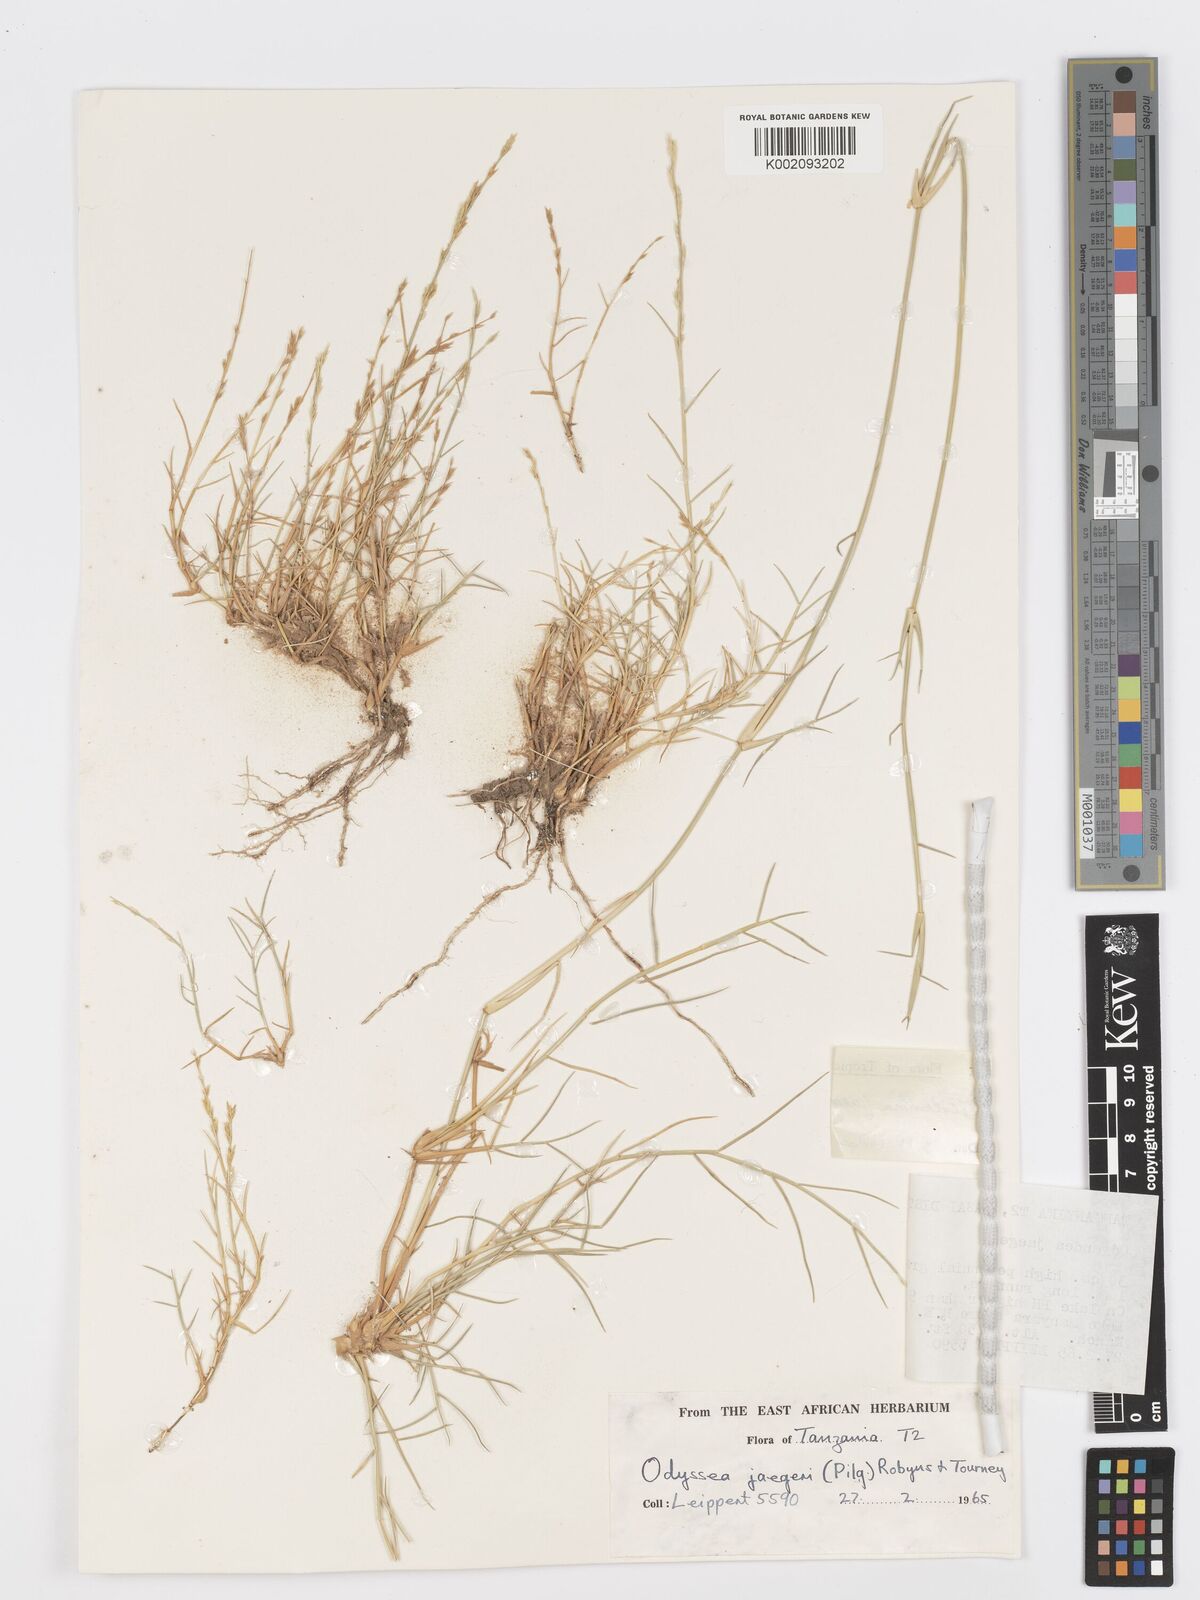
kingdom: Plantae
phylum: Tracheophyta
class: Liliopsida
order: Poales
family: Poaceae
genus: Psilolemma
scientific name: Psilolemma jaegeri
